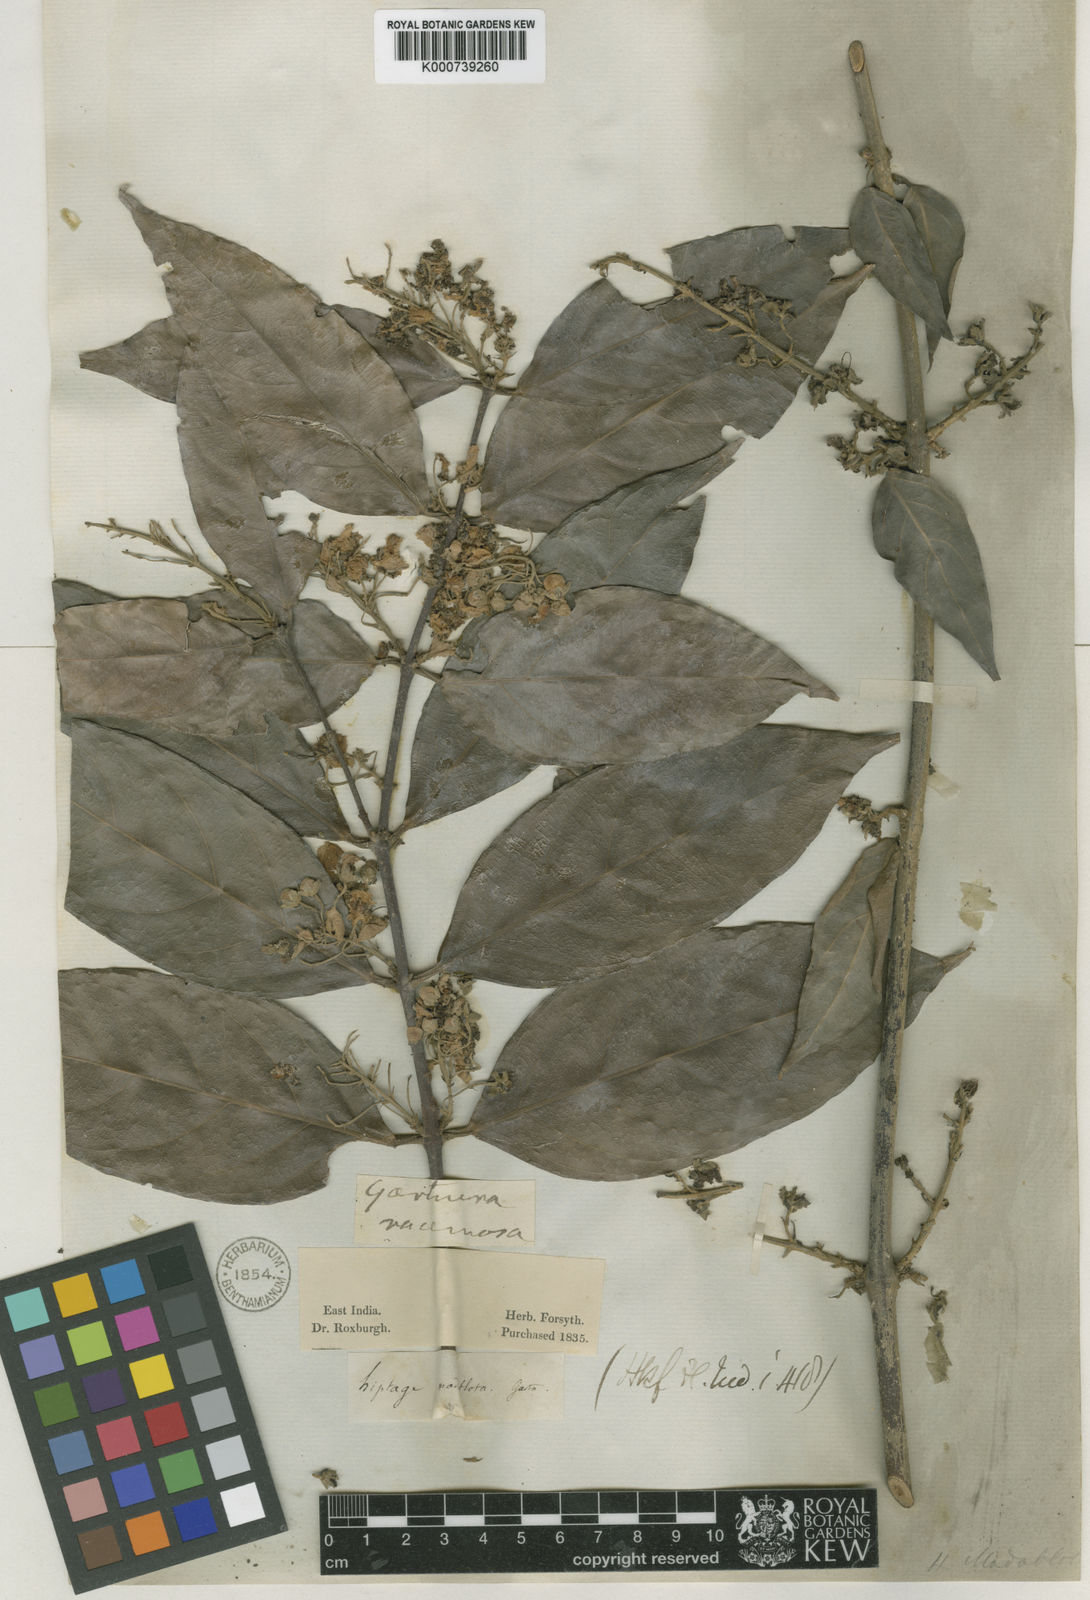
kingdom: Plantae
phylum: Tracheophyta
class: Magnoliopsida
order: Malpighiales
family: Malpighiaceae
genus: Hiptage
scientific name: Hiptage benghalensis
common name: Hiptage
